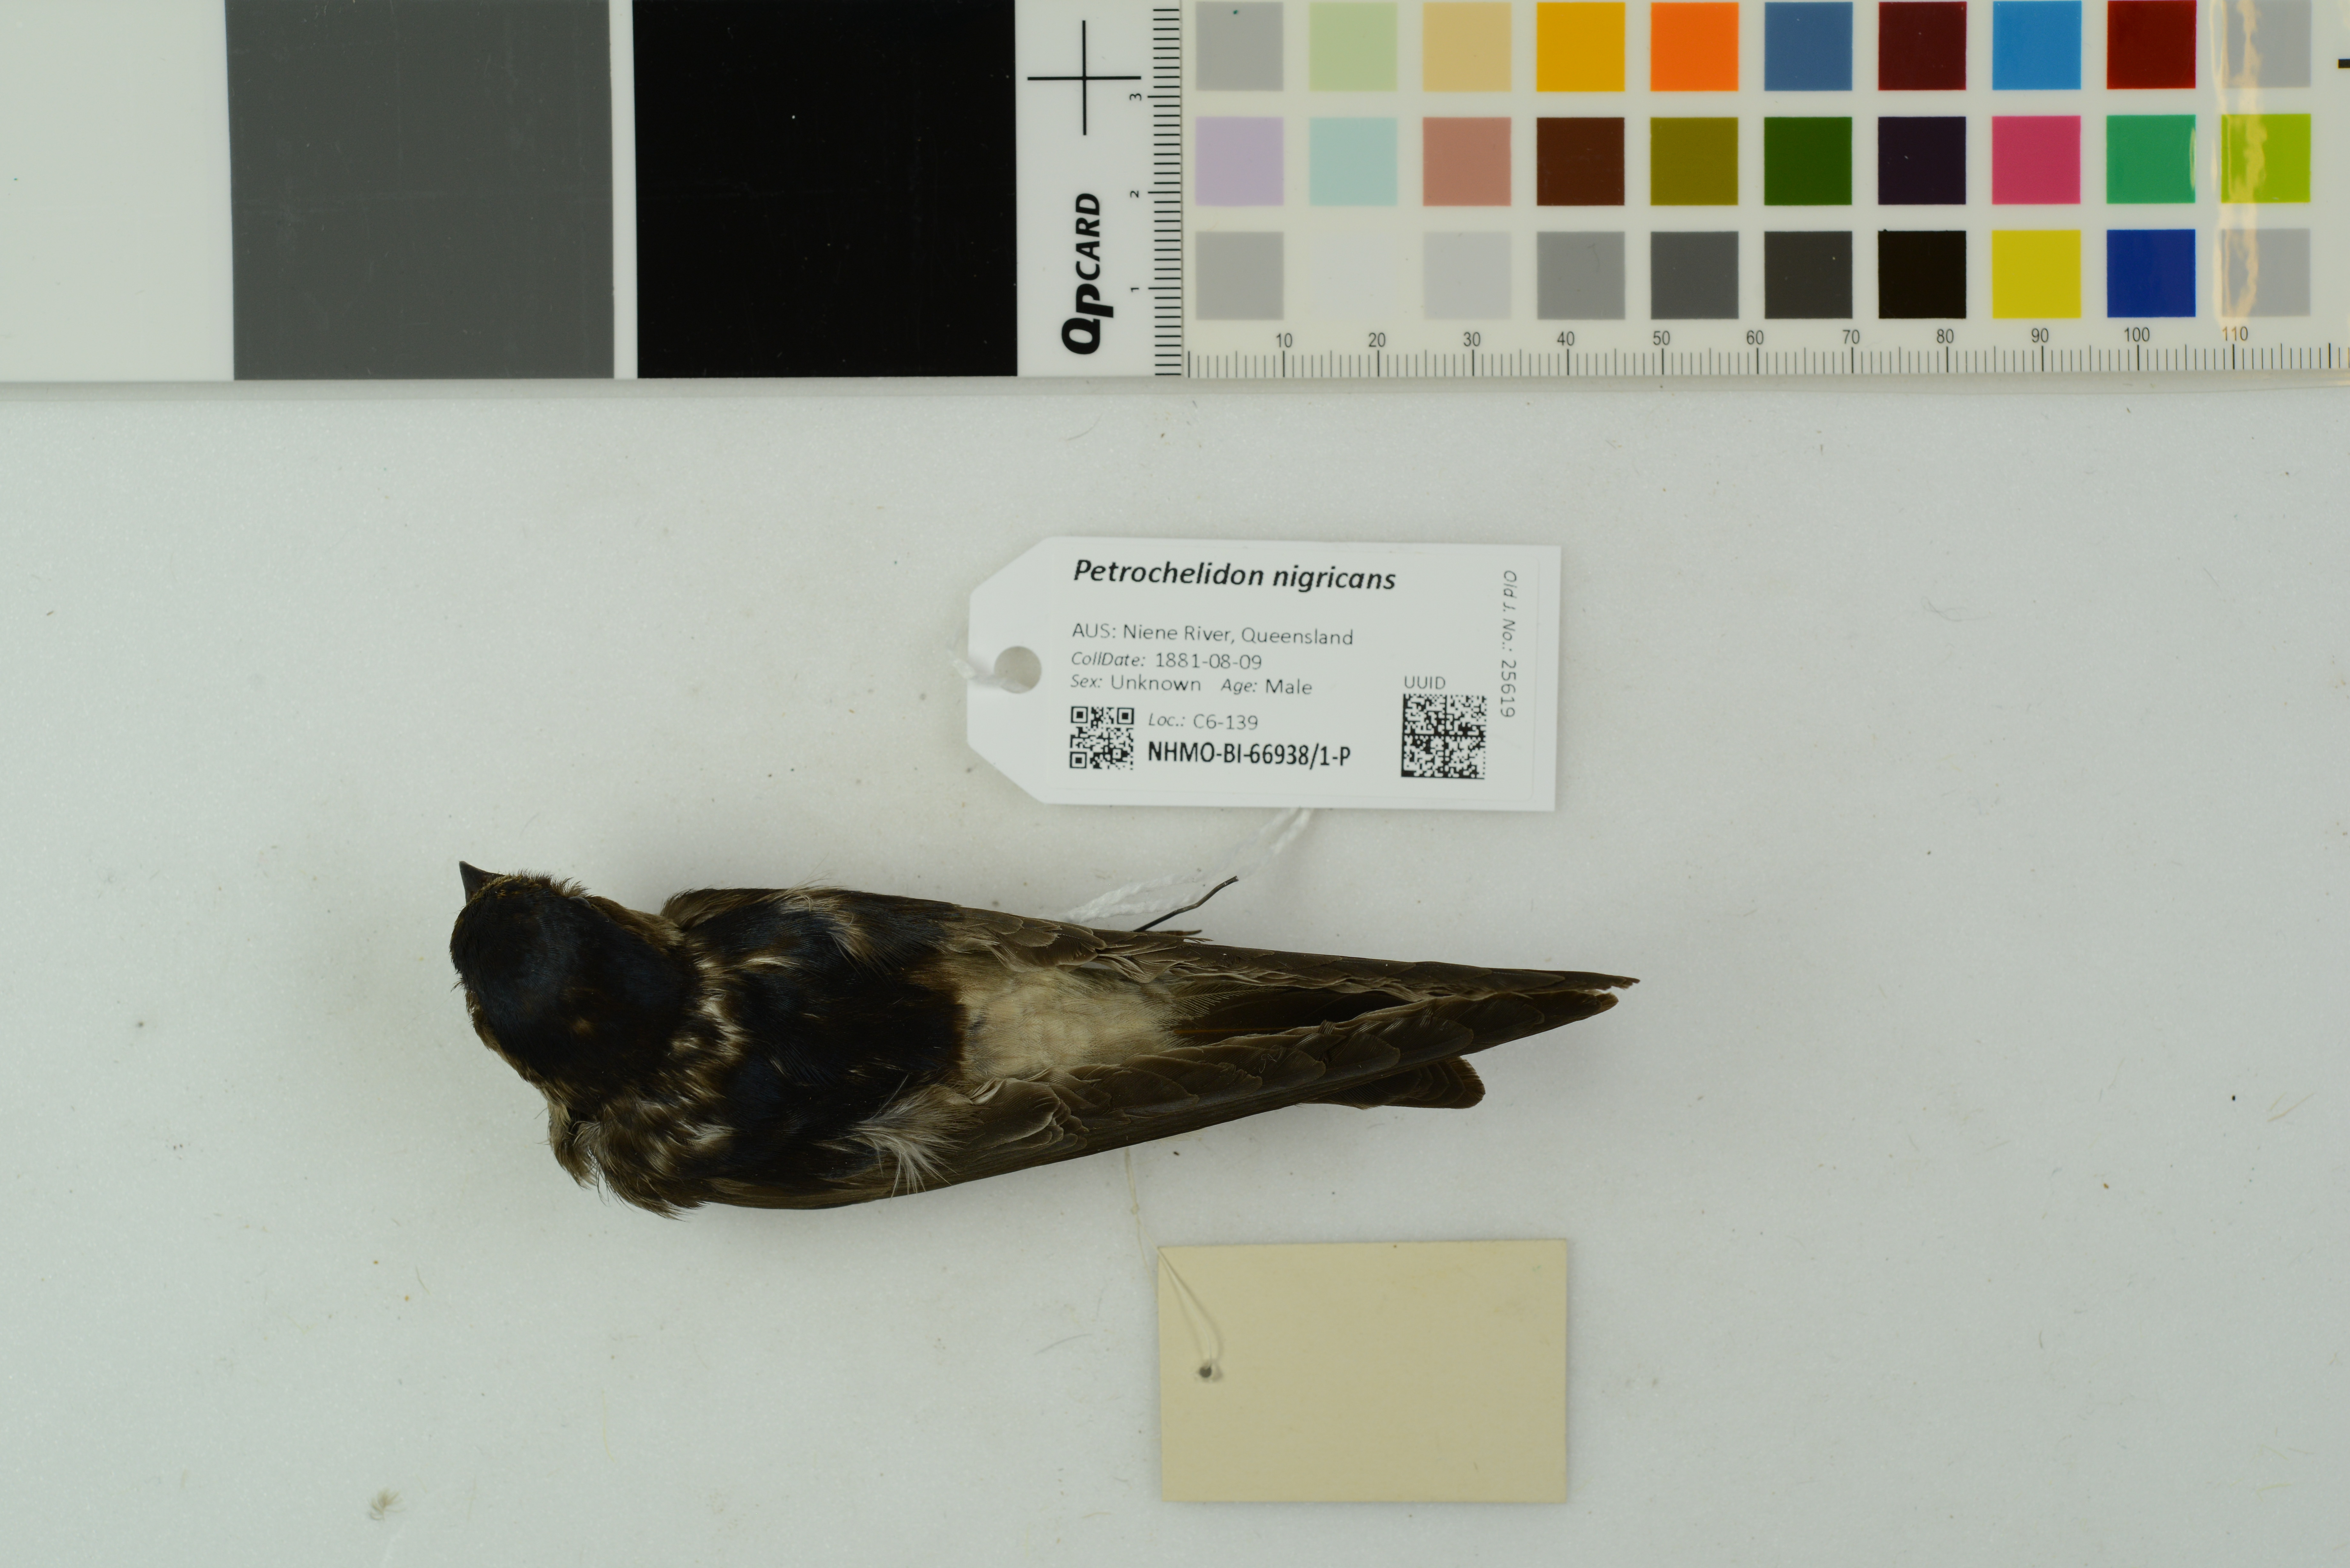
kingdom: Animalia
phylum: Chordata
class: Aves
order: Passeriformes
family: Hirundinidae
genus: Petrochelidon
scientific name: Petrochelidon nigricans
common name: Tree martin
